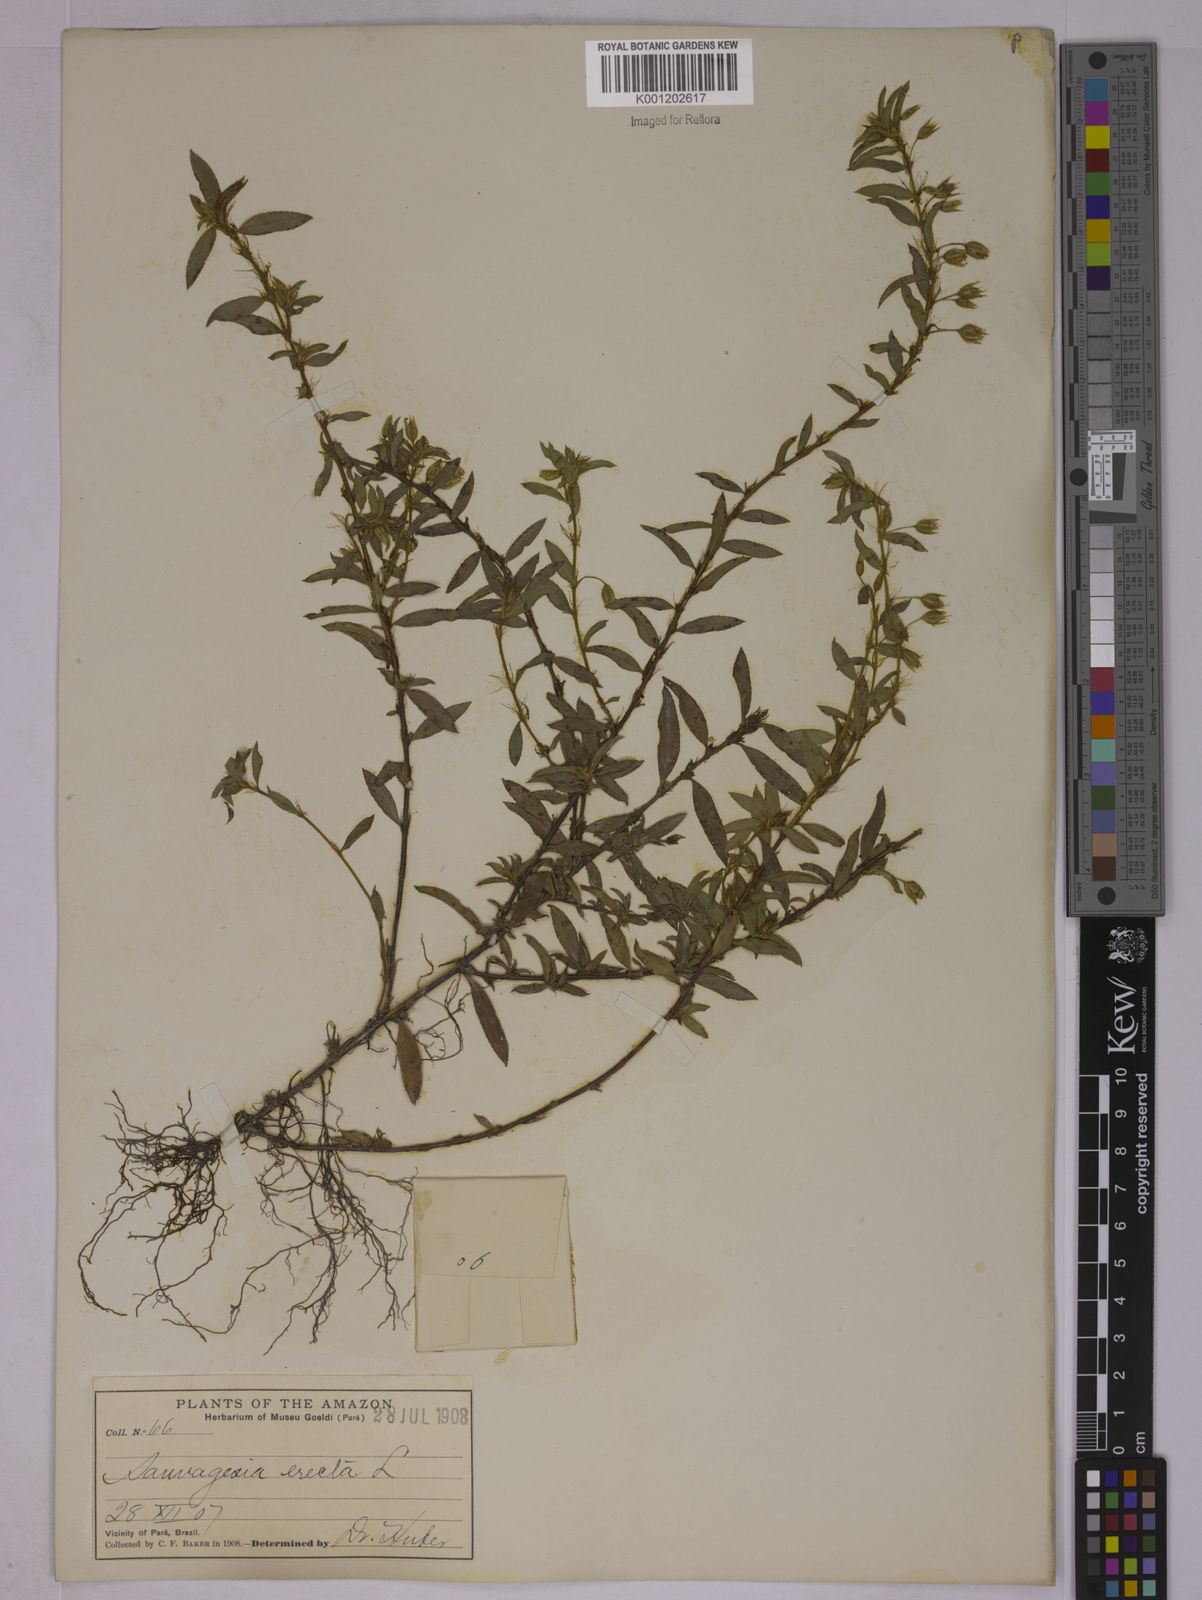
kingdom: Plantae
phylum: Tracheophyta
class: Magnoliopsida
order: Malpighiales
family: Ochnaceae
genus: Sauvagesia
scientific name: Sauvagesia erecta
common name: Creole tea
